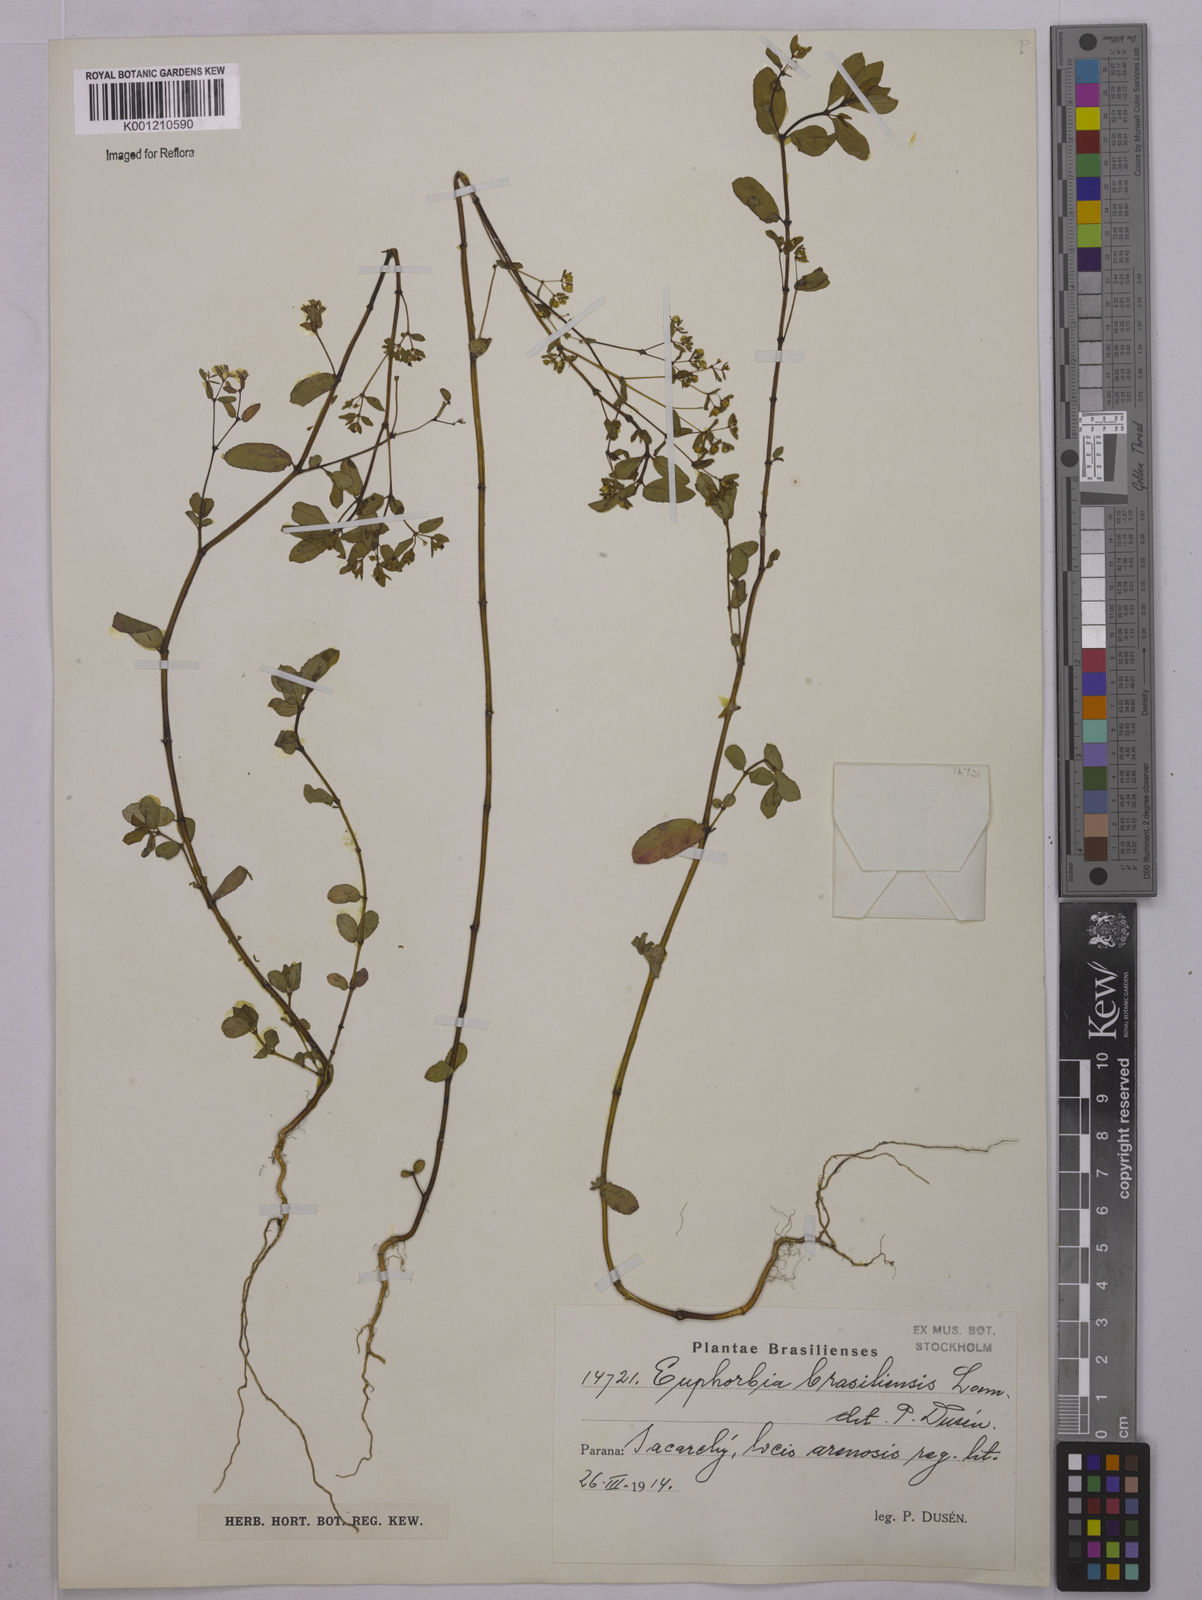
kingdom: Plantae
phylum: Tracheophyta
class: Magnoliopsida
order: Malpighiales
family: Euphorbiaceae
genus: Euphorbia
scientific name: Euphorbia hyssopifolia
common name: Hyssopleaf sandmat
